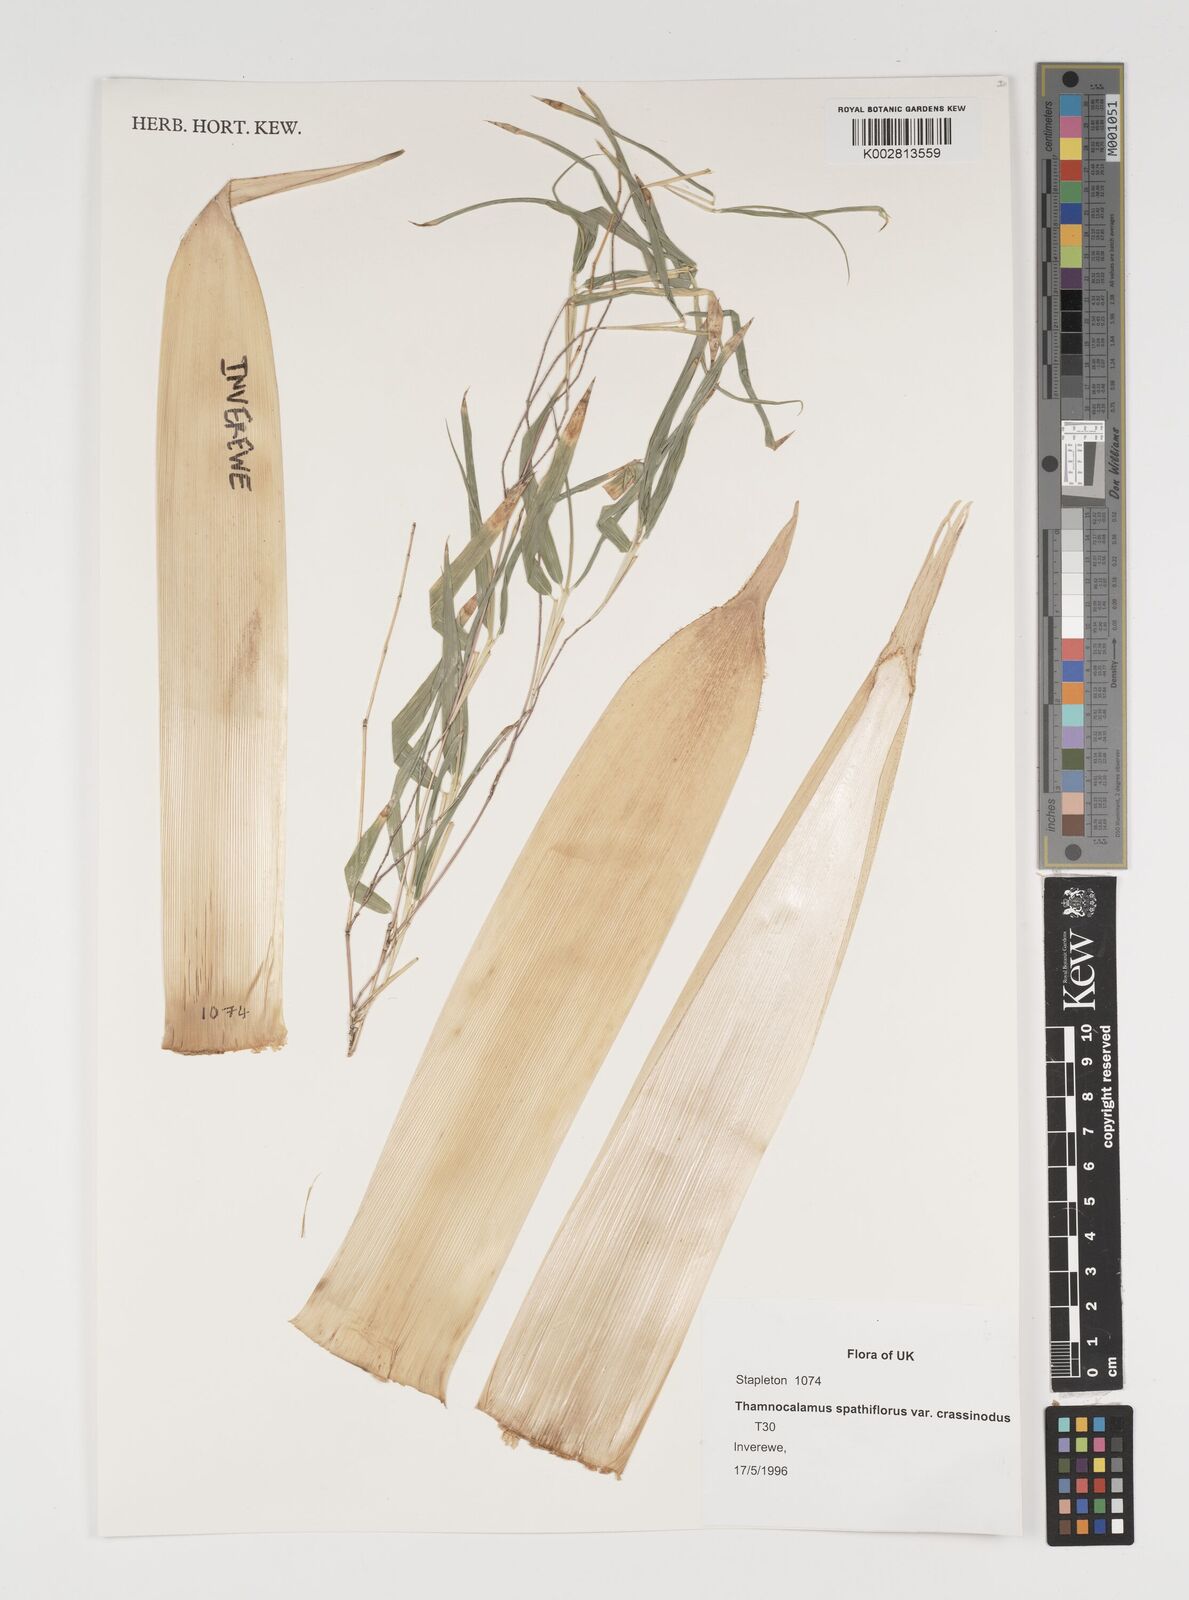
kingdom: Plantae
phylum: Tracheophyta
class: Liliopsida
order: Poales
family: Poaceae
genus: Fargesia
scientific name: Fargesia murielae
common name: Umbrella bamboo
